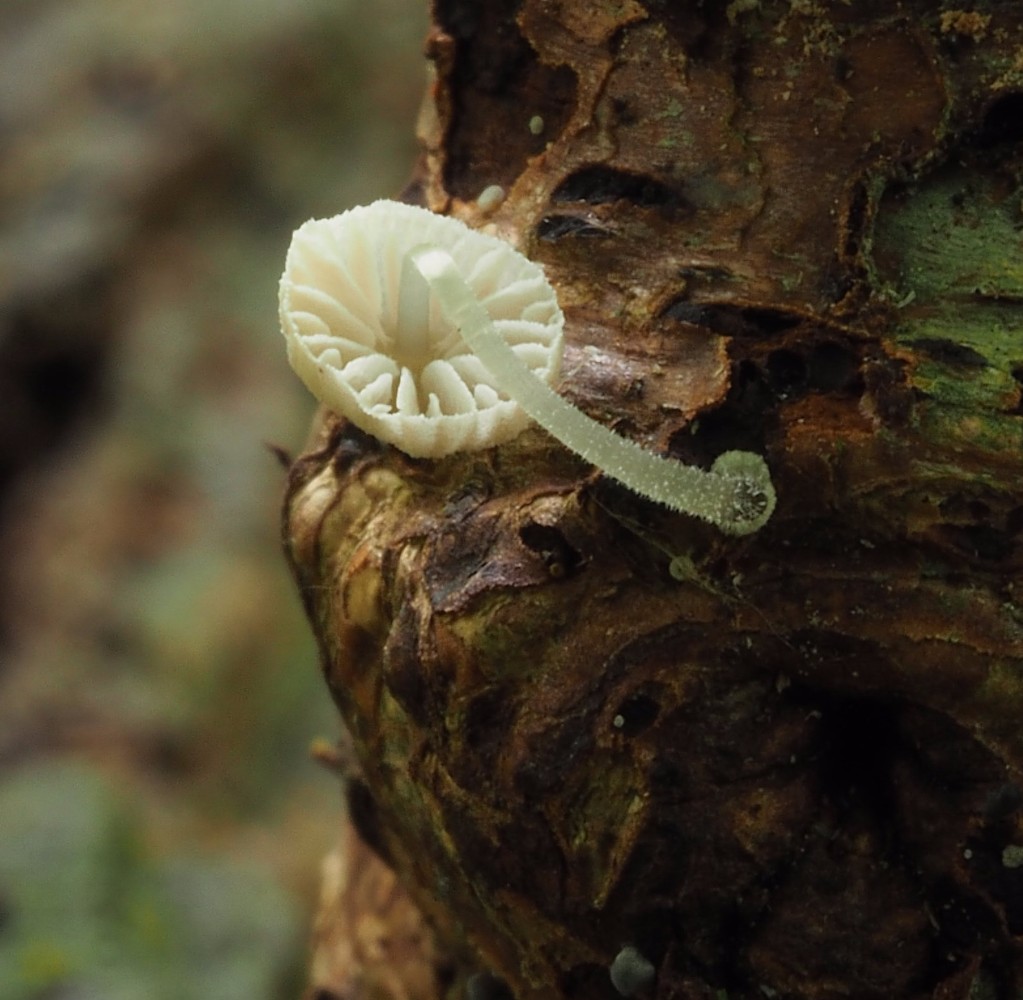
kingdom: Fungi
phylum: Basidiomycota
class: Agaricomycetes
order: Agaricales
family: Mycenaceae
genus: Mycena
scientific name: Mycena tenerrima
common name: pudret huesvamp
